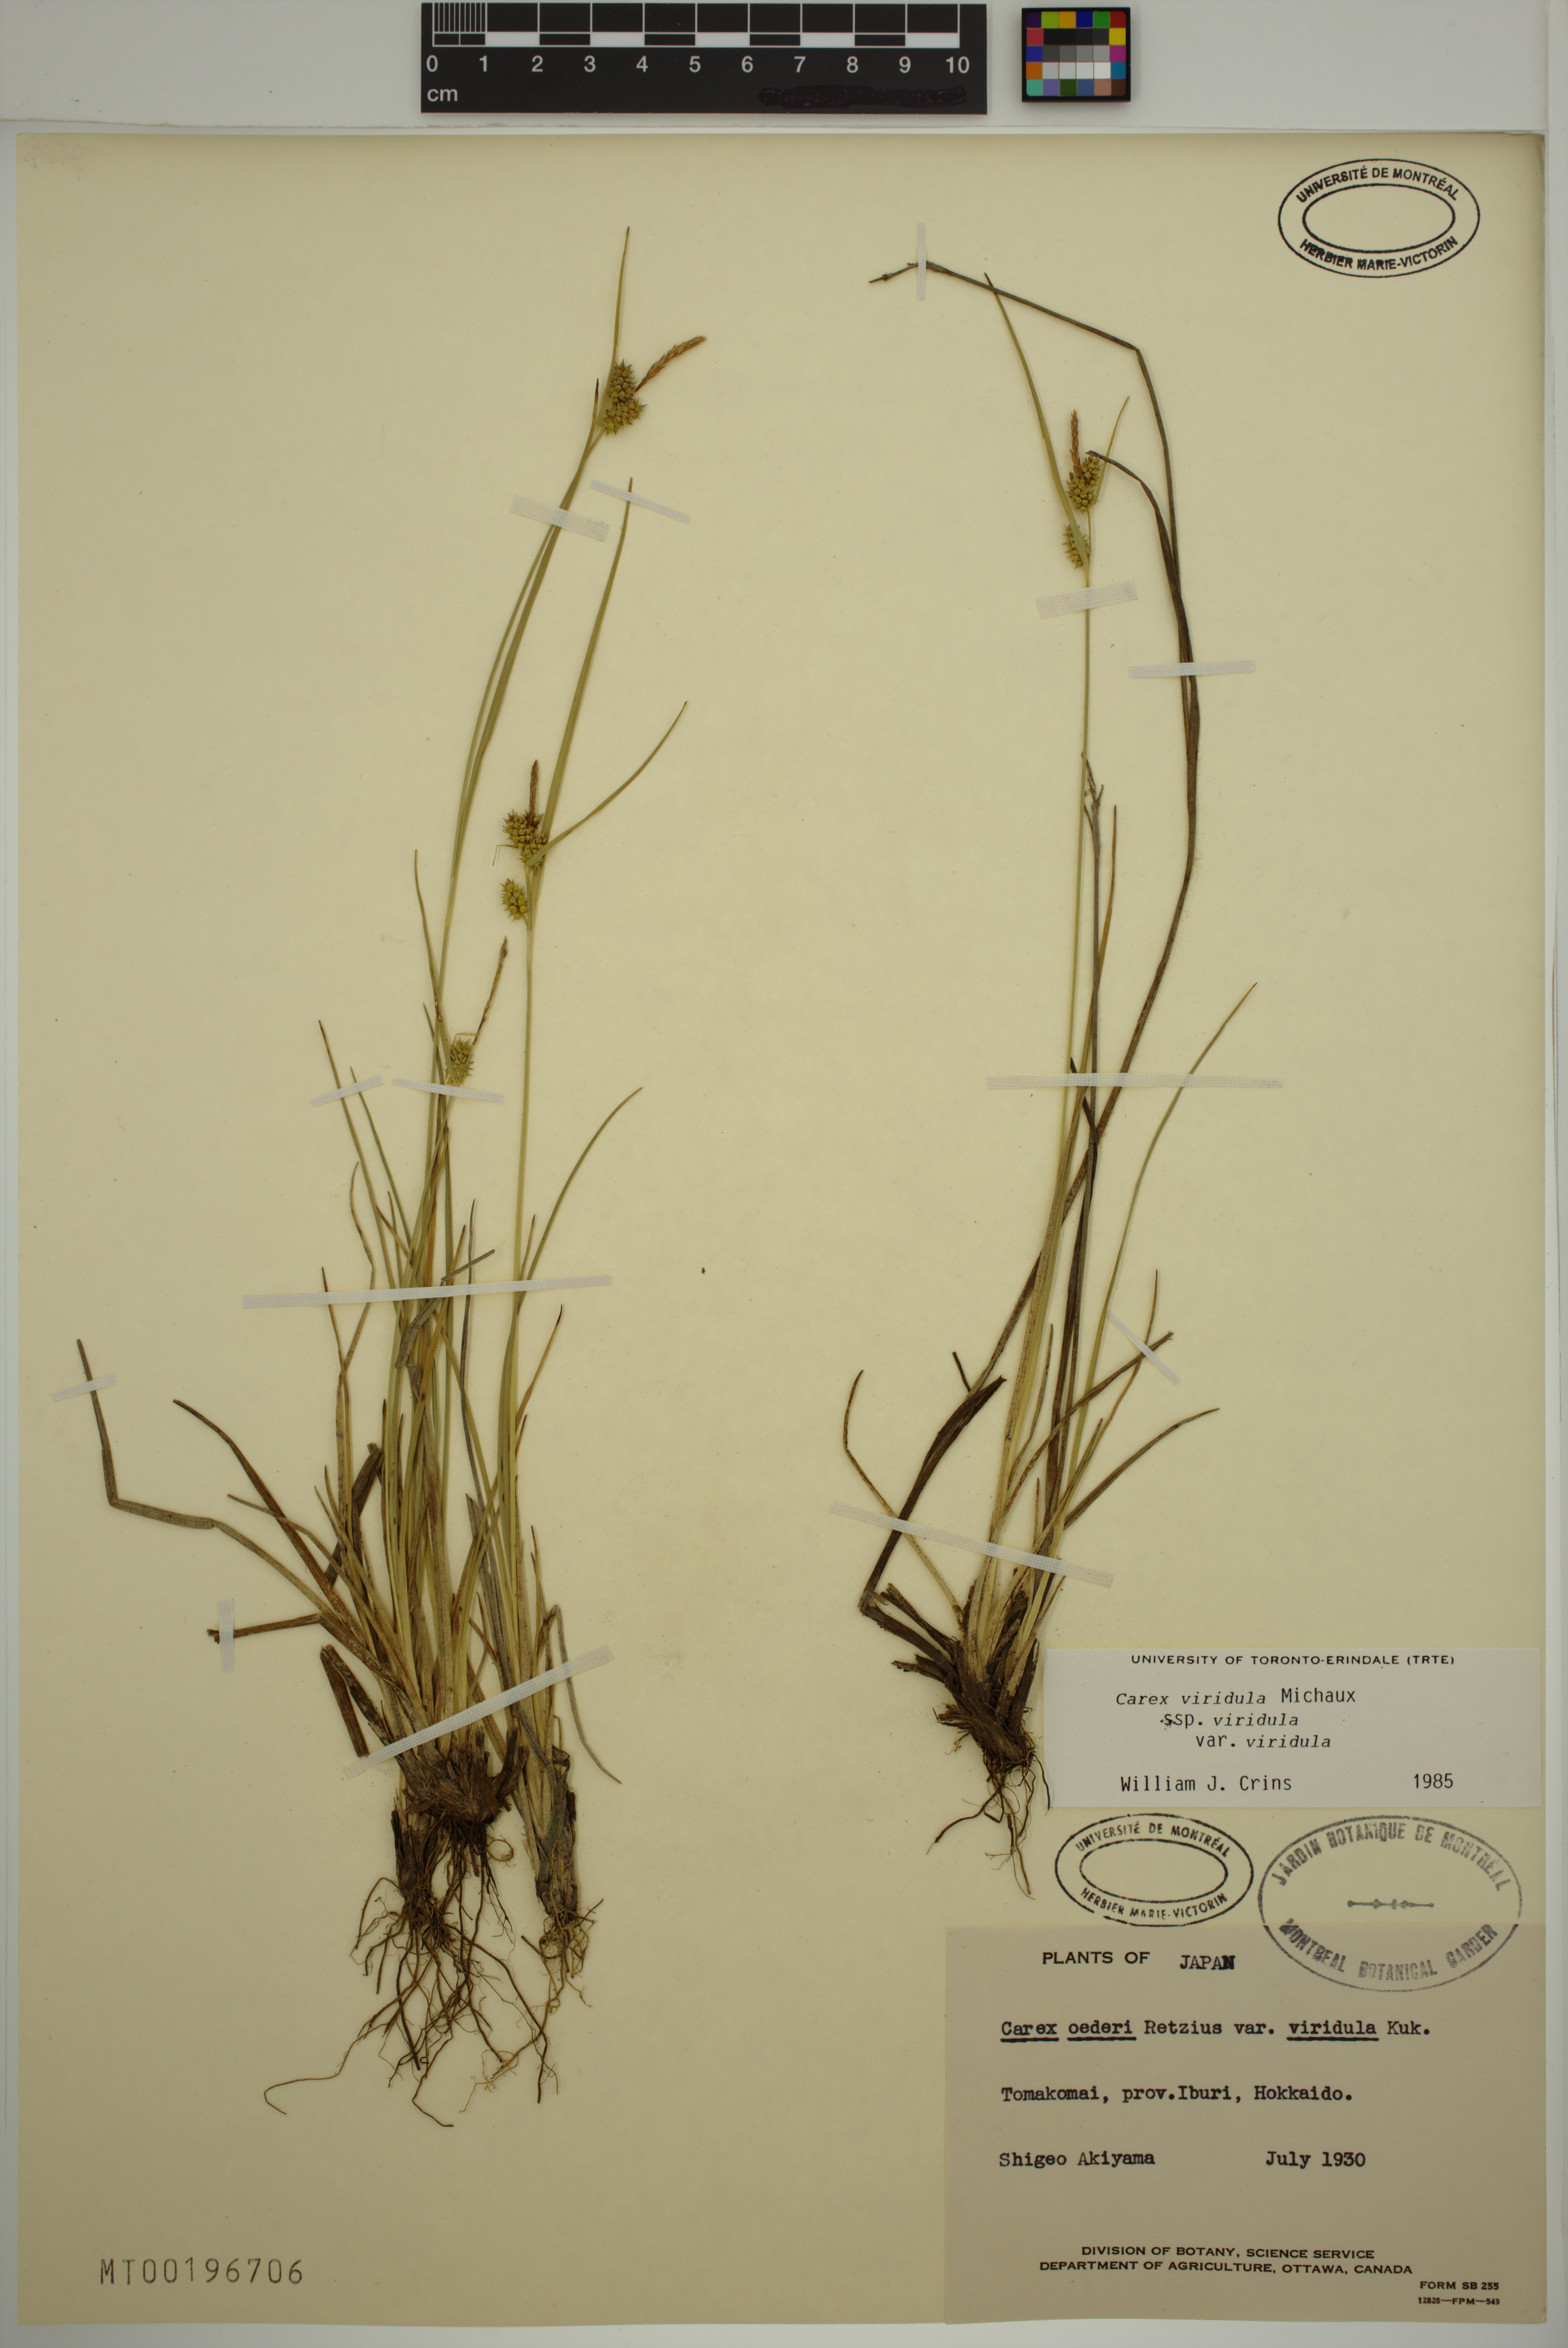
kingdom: Plantae
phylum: Tracheophyta
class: Liliopsida
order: Poales
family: Cyperaceae
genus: Carex
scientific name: Carex oederi
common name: Common & small-fruited yellow-sedge
